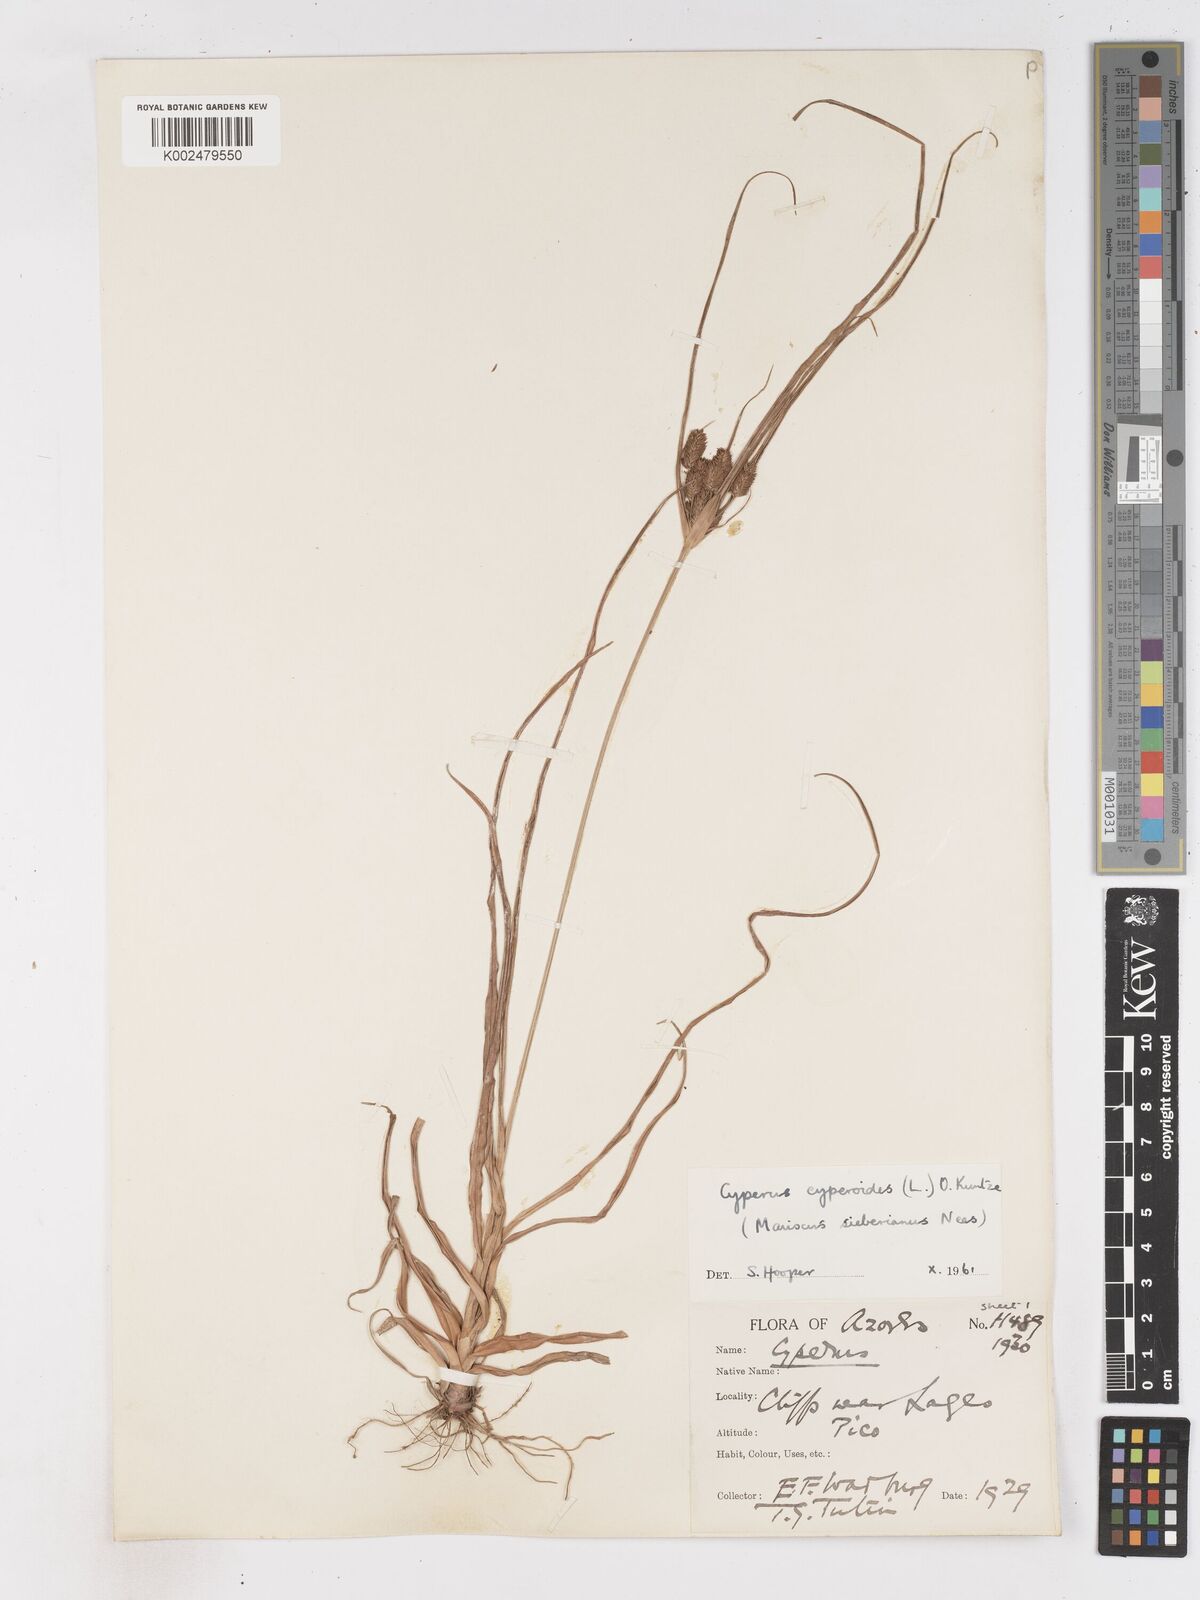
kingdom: Plantae
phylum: Tracheophyta
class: Liliopsida
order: Poales
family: Cyperaceae
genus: Cyperus
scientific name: Cyperus cyperoides
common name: Pacific island flat sedge
